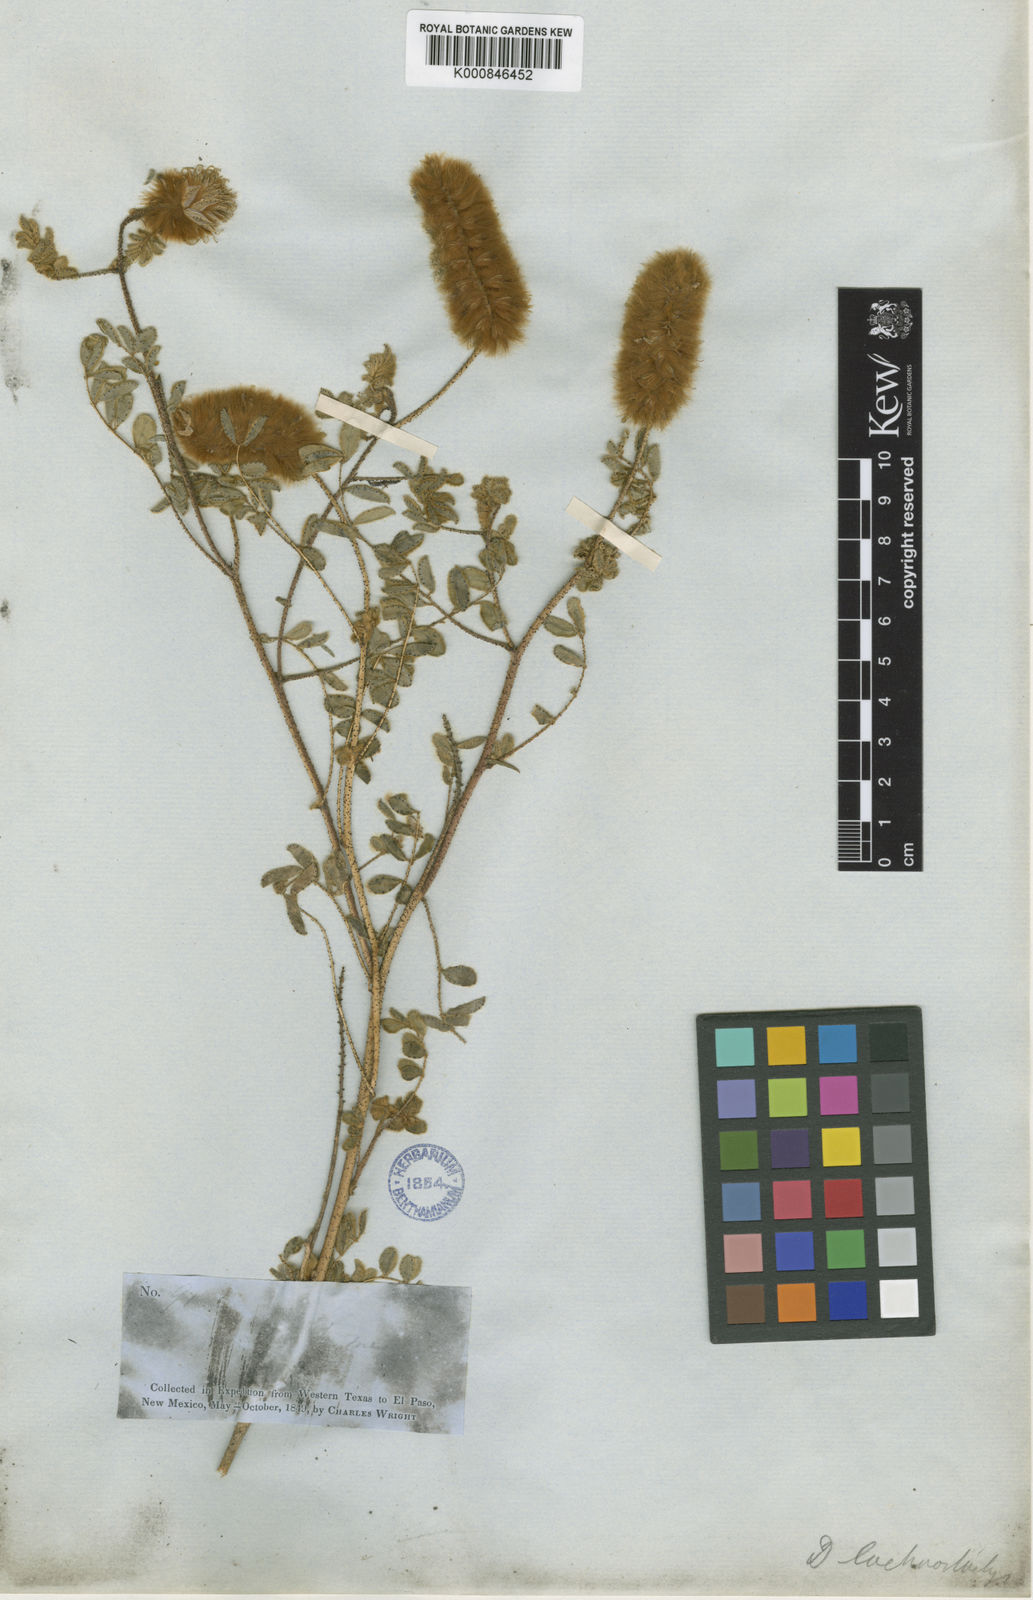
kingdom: Plantae
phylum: Tracheophyta
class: Magnoliopsida
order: Fabales
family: Fabaceae
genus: Dalea
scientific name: Dalea lachnostachys
